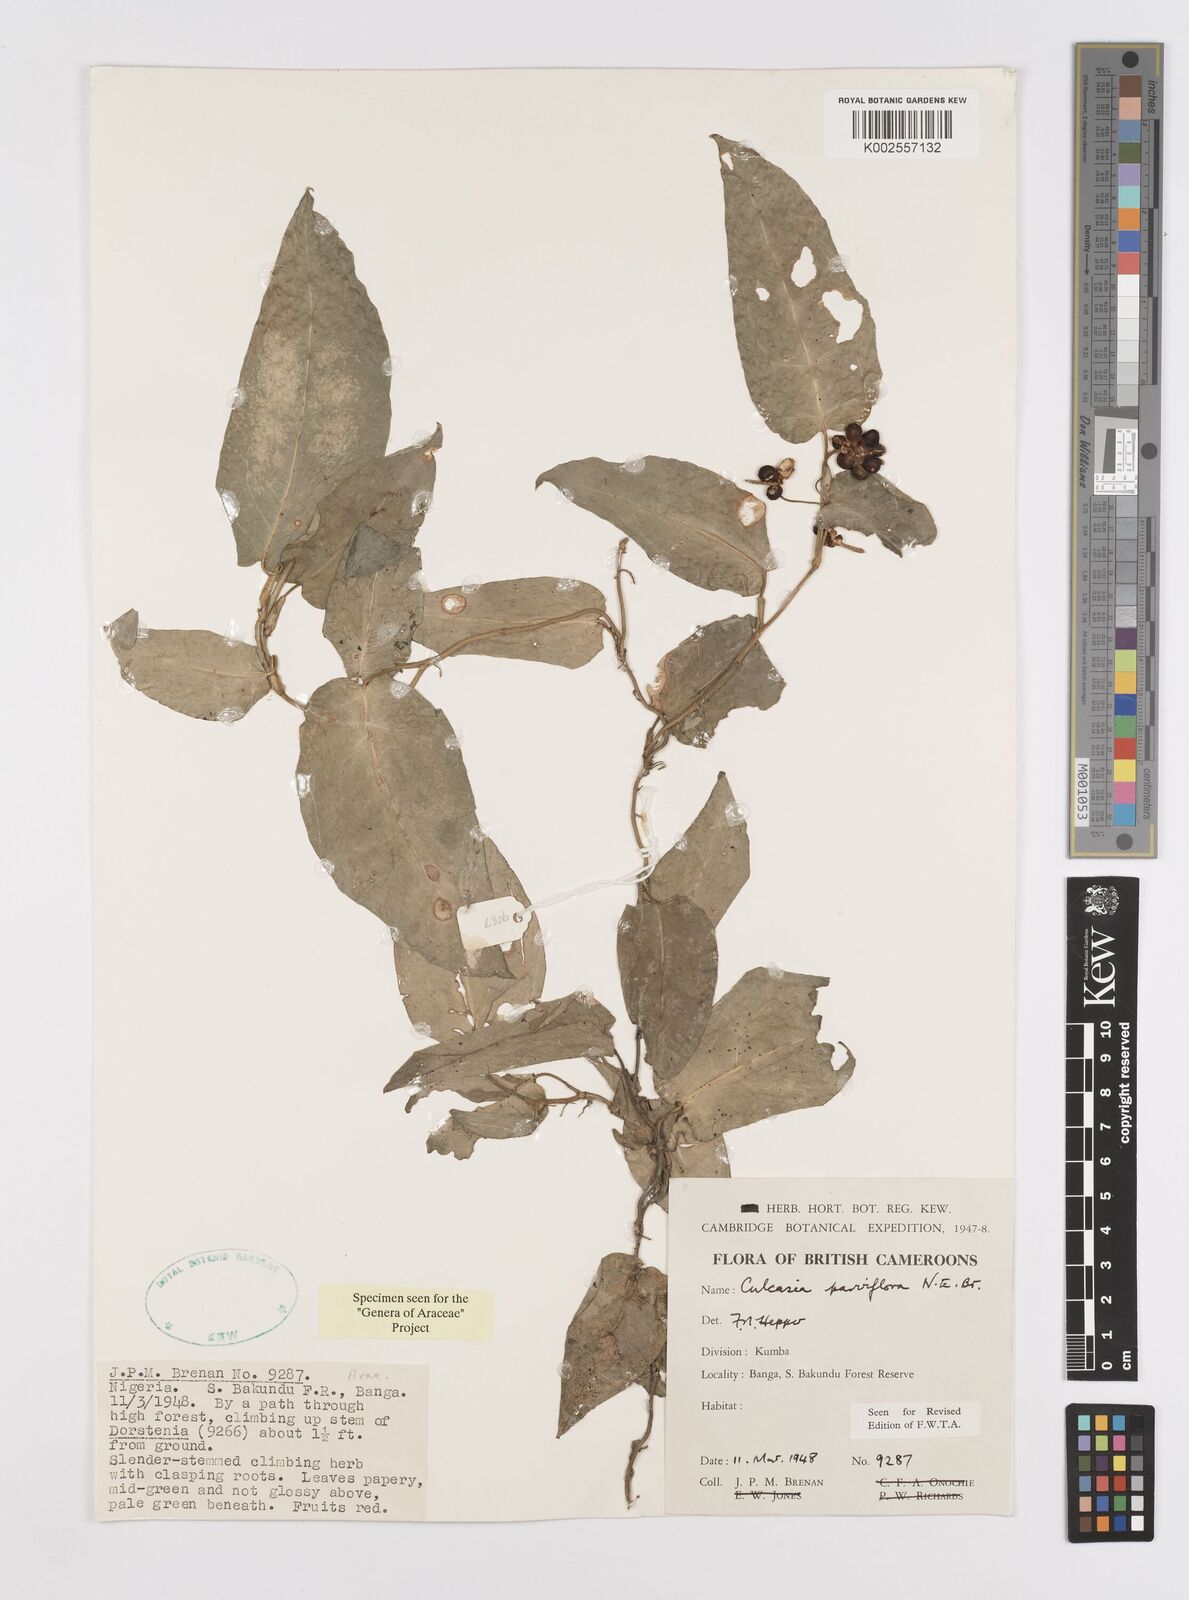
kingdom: Plantae
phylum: Tracheophyta
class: Liliopsida
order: Alismatales
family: Araceae
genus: Culcasia
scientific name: Culcasia parviflora
